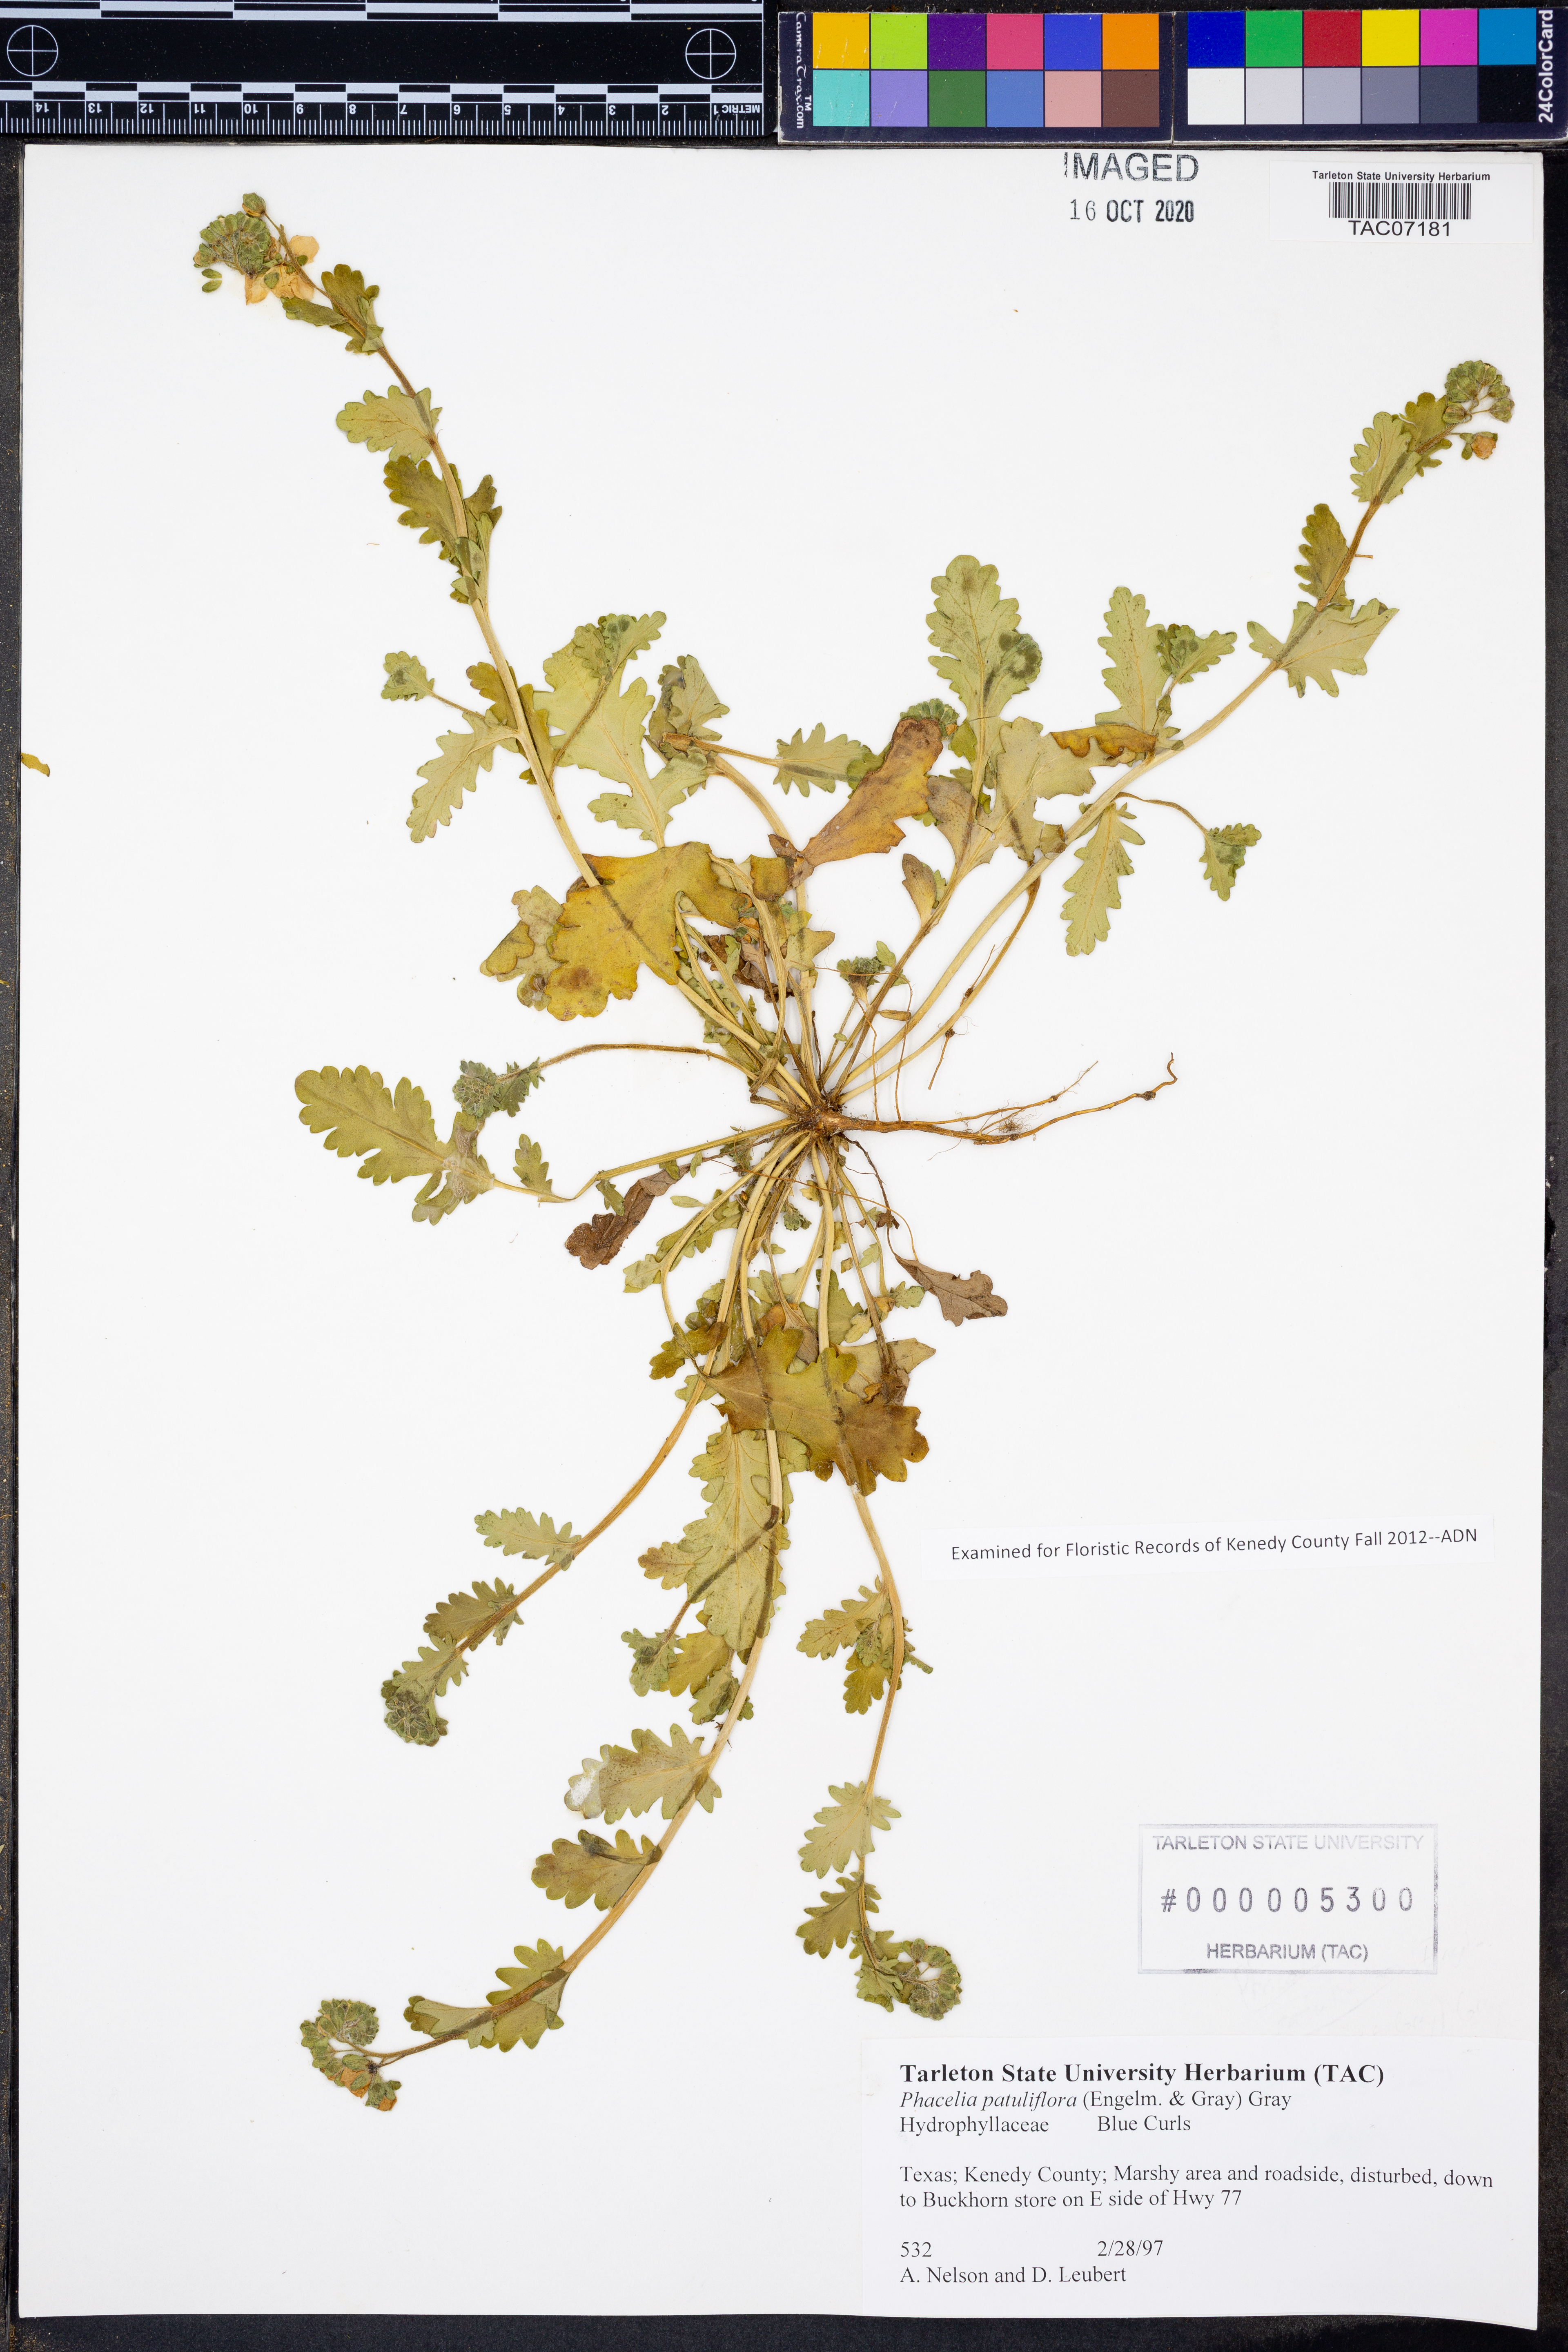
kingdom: Plantae
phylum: Tracheophyta
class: Magnoliopsida
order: Boraginales
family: Hydrophyllaceae
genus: Phacelia
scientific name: Phacelia patuliflora
